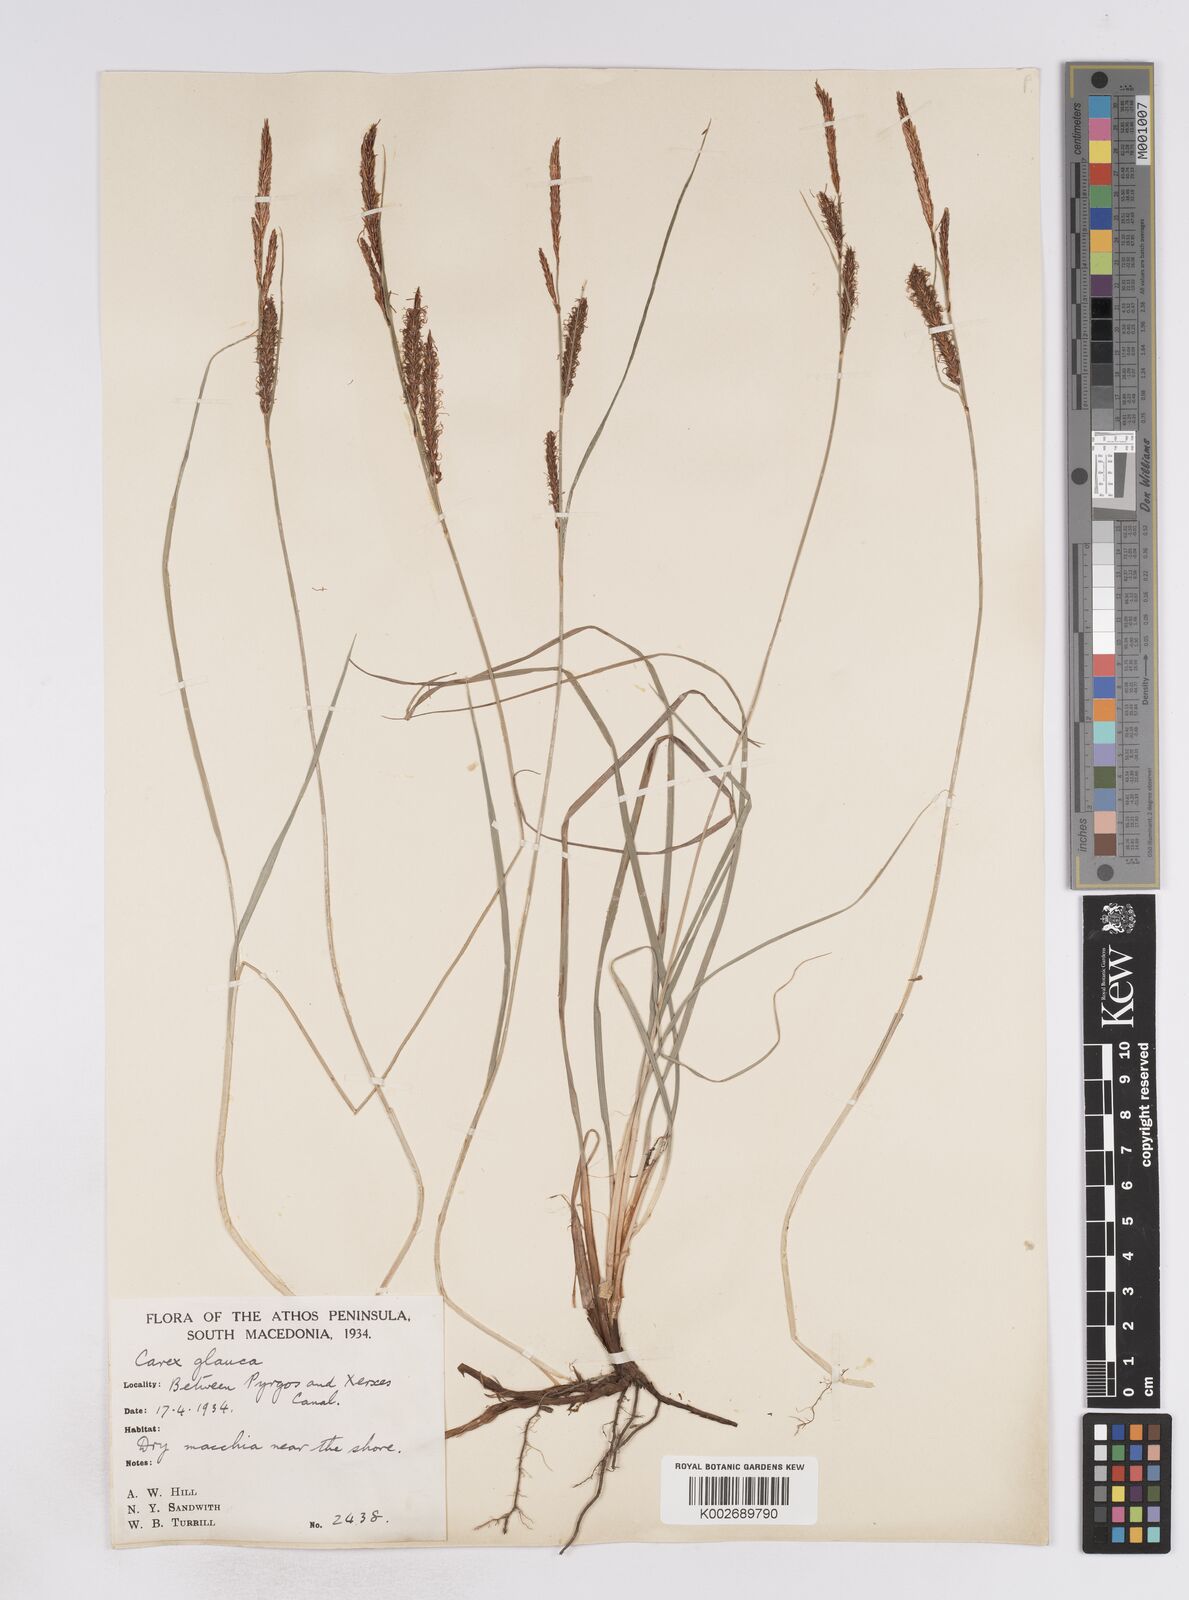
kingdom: Plantae
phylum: Tracheophyta
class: Liliopsida
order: Poales
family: Cyperaceae
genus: Carex
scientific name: Carex flacca
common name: Glaucous sedge
